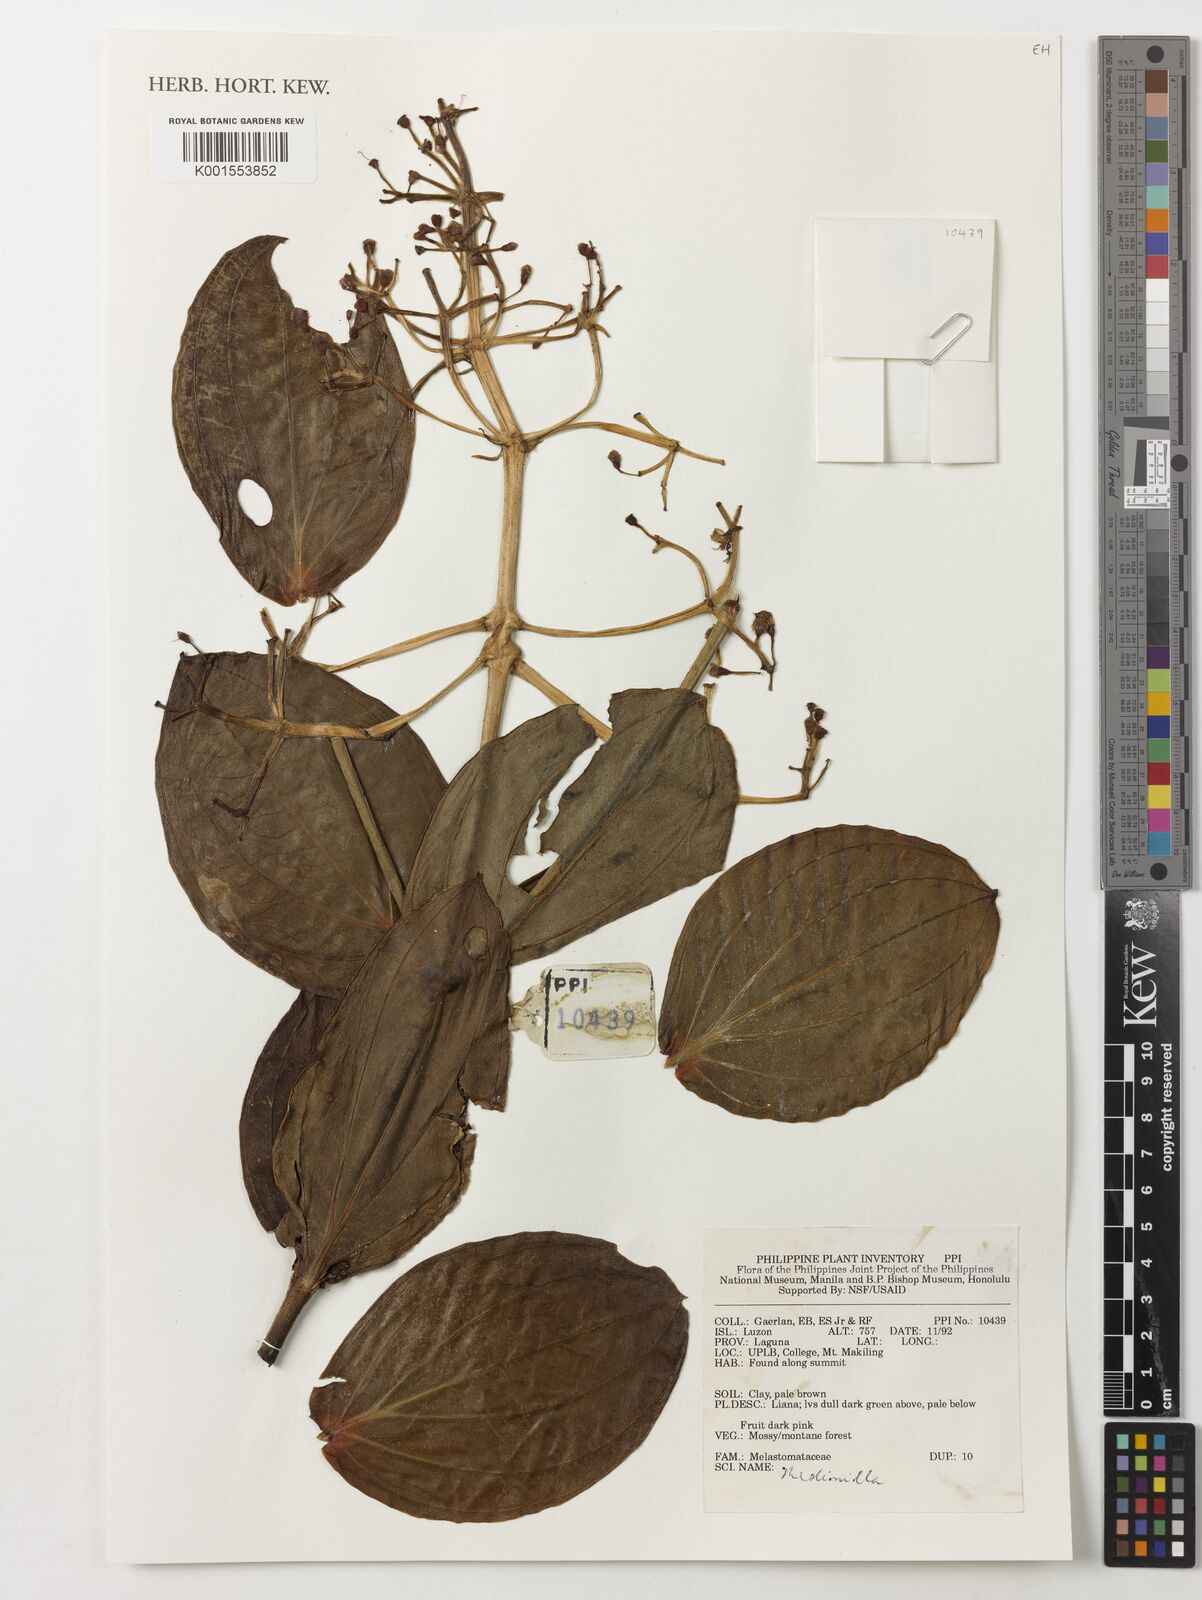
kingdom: Plantae
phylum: Tracheophyta
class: Magnoliopsida
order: Myrtales
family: Melastomataceae
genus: Medinilla
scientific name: Medinilla
